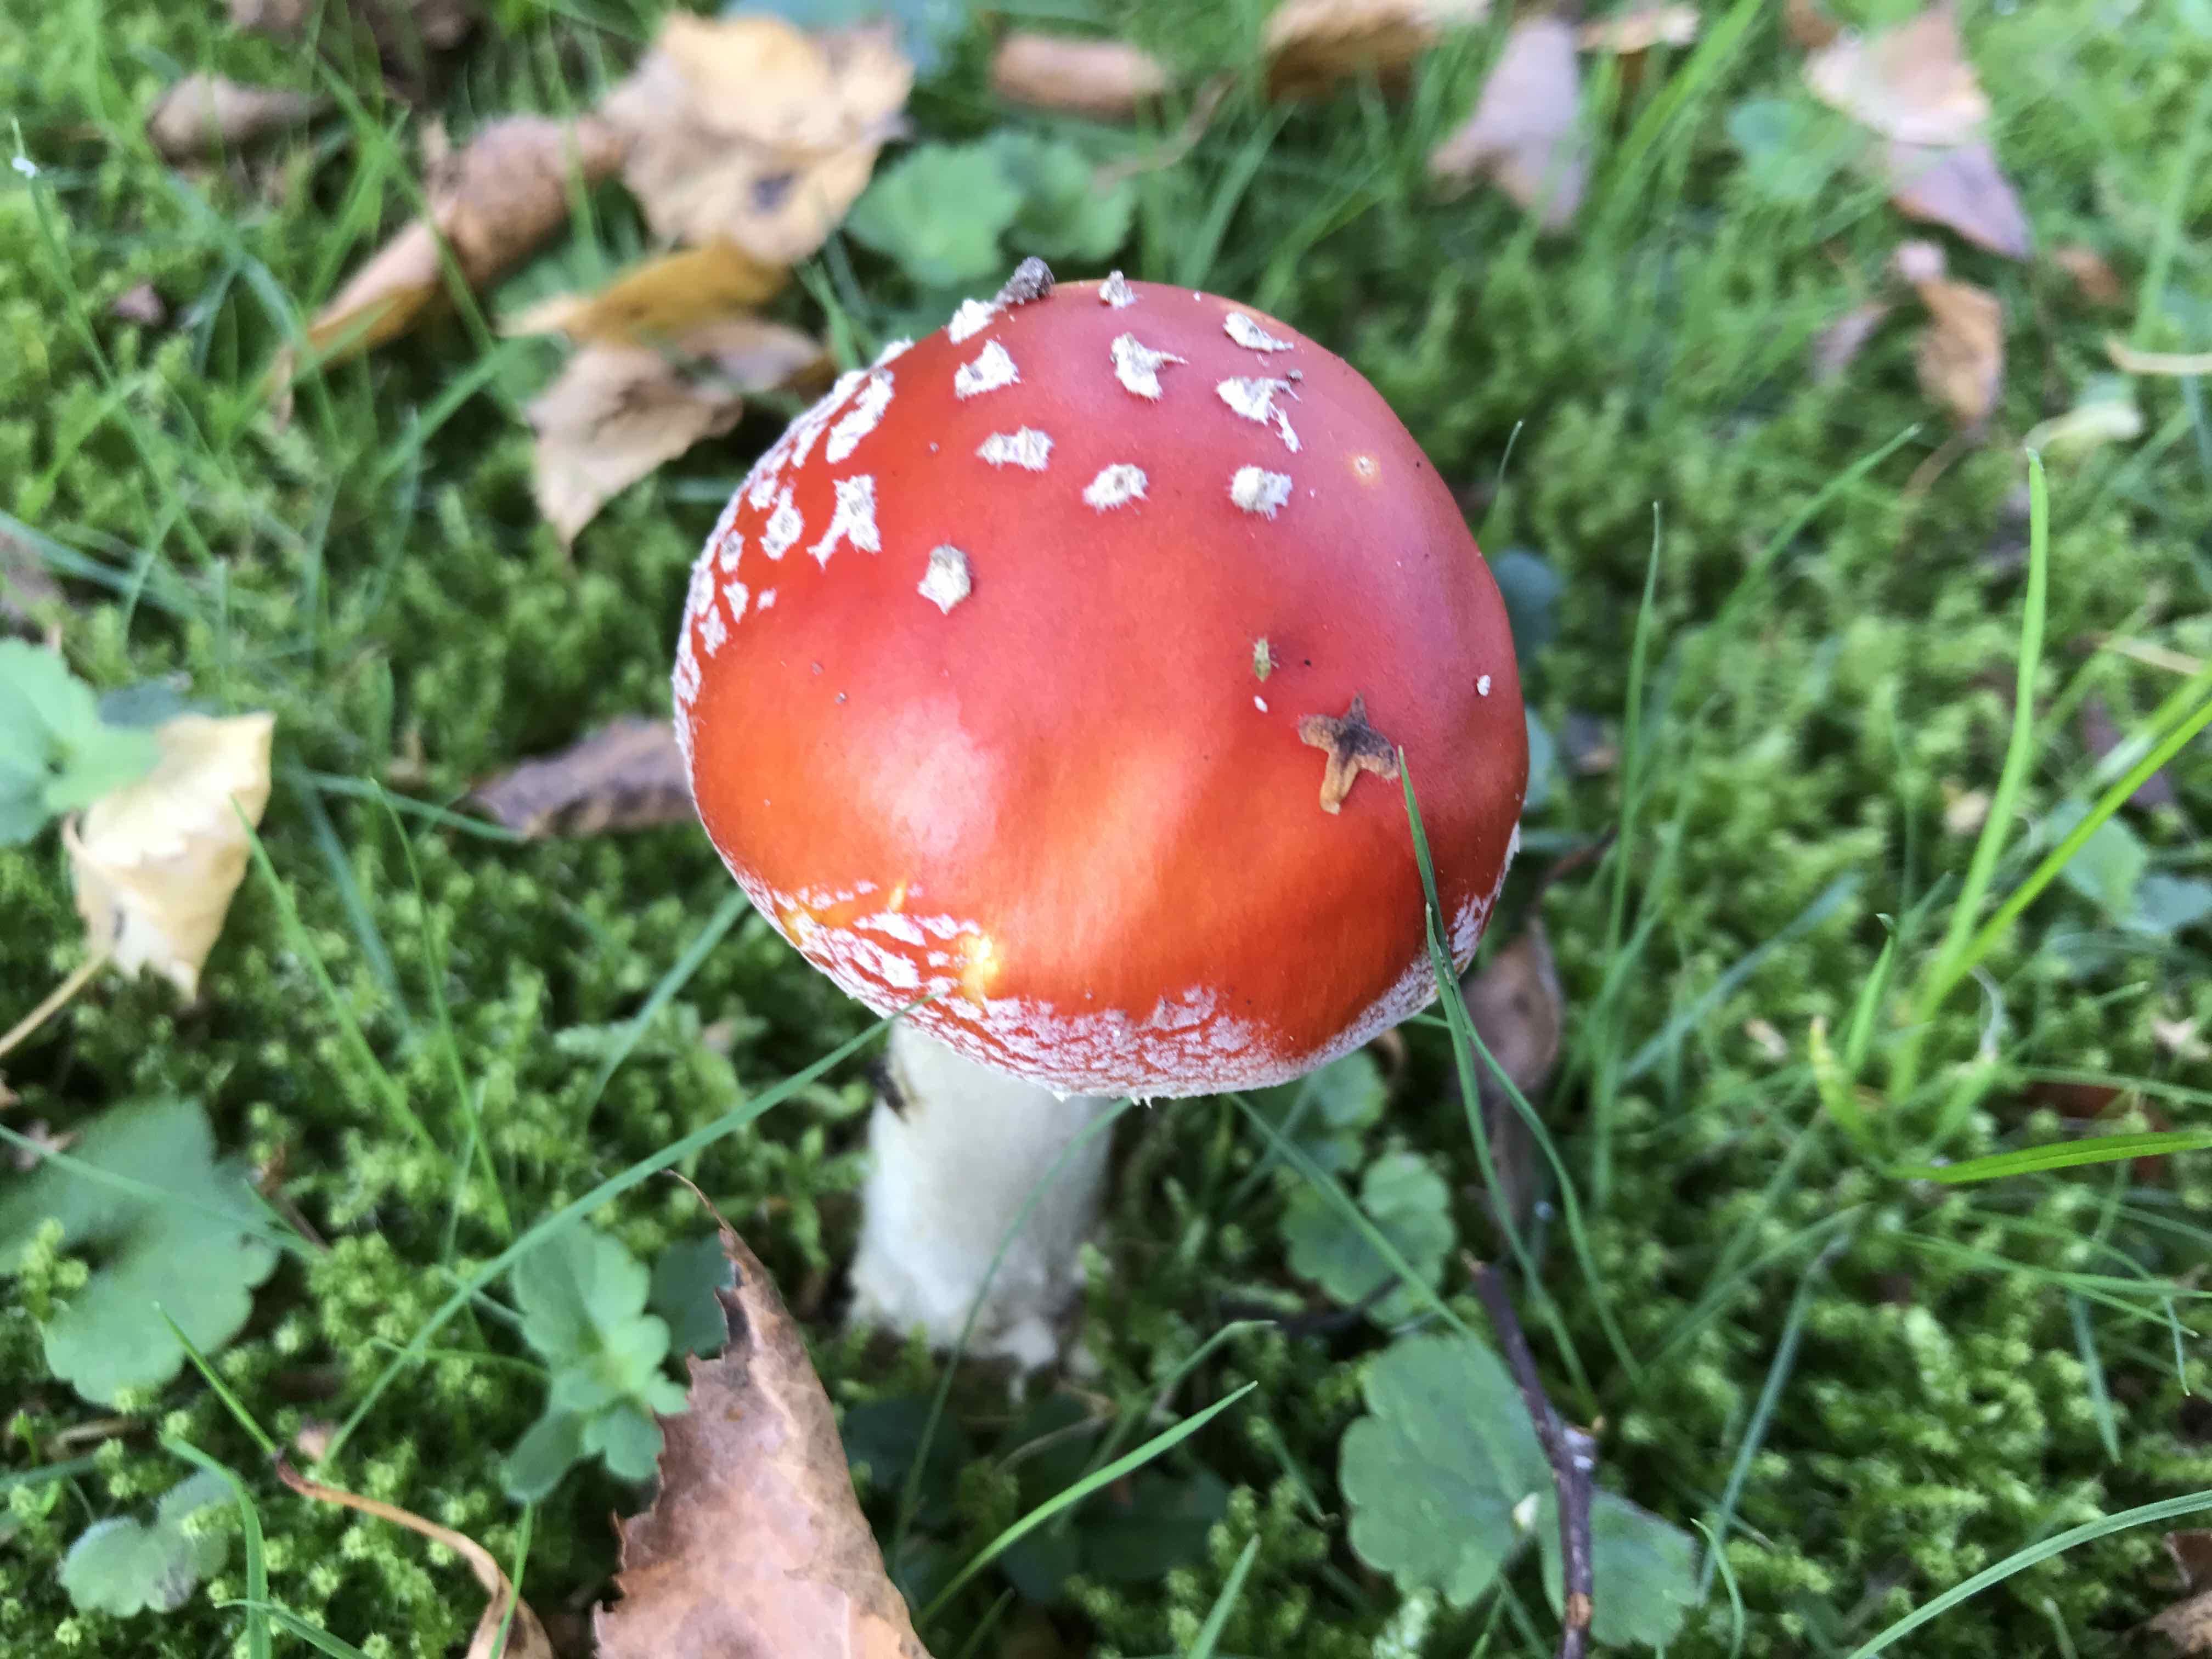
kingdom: Fungi
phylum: Basidiomycota
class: Agaricomycetes
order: Agaricales
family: Amanitaceae
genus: Amanita
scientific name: Amanita muscaria
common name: rød fluesvamp
